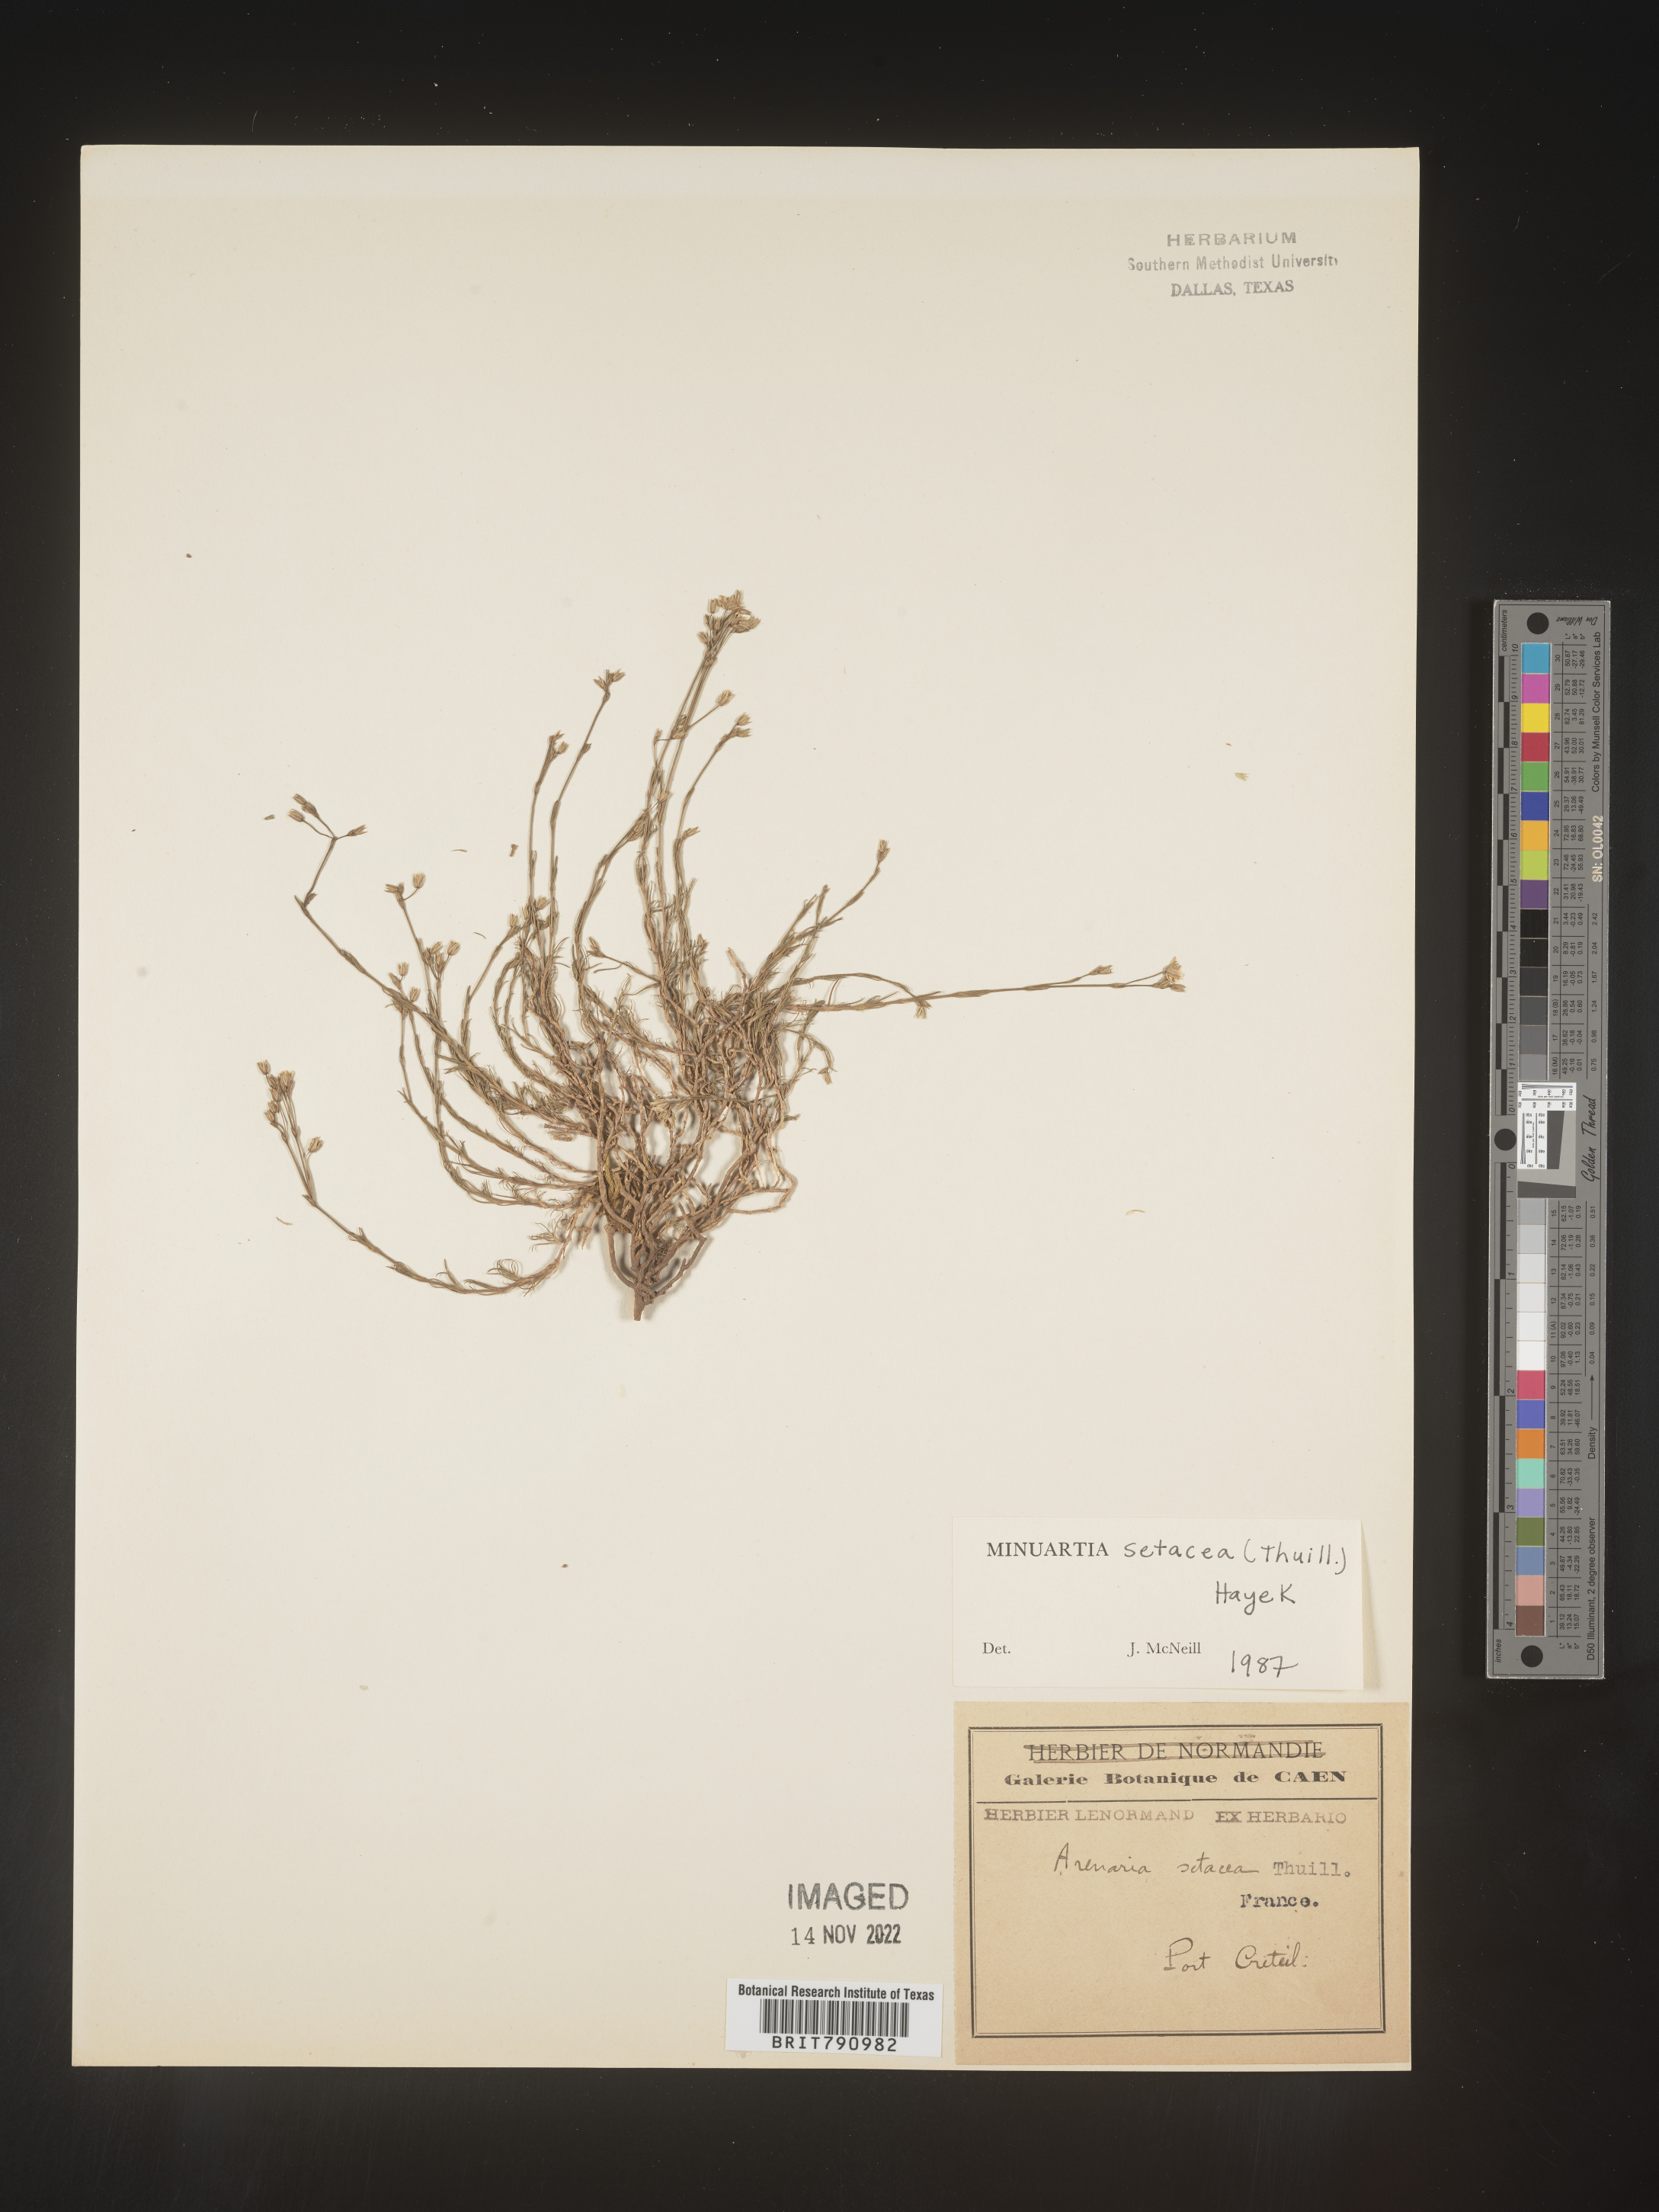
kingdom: Plantae
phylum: Tracheophyta
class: Magnoliopsida
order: Caryophyllales
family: Caryophyllaceae
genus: Minuartia
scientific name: Minuartia
